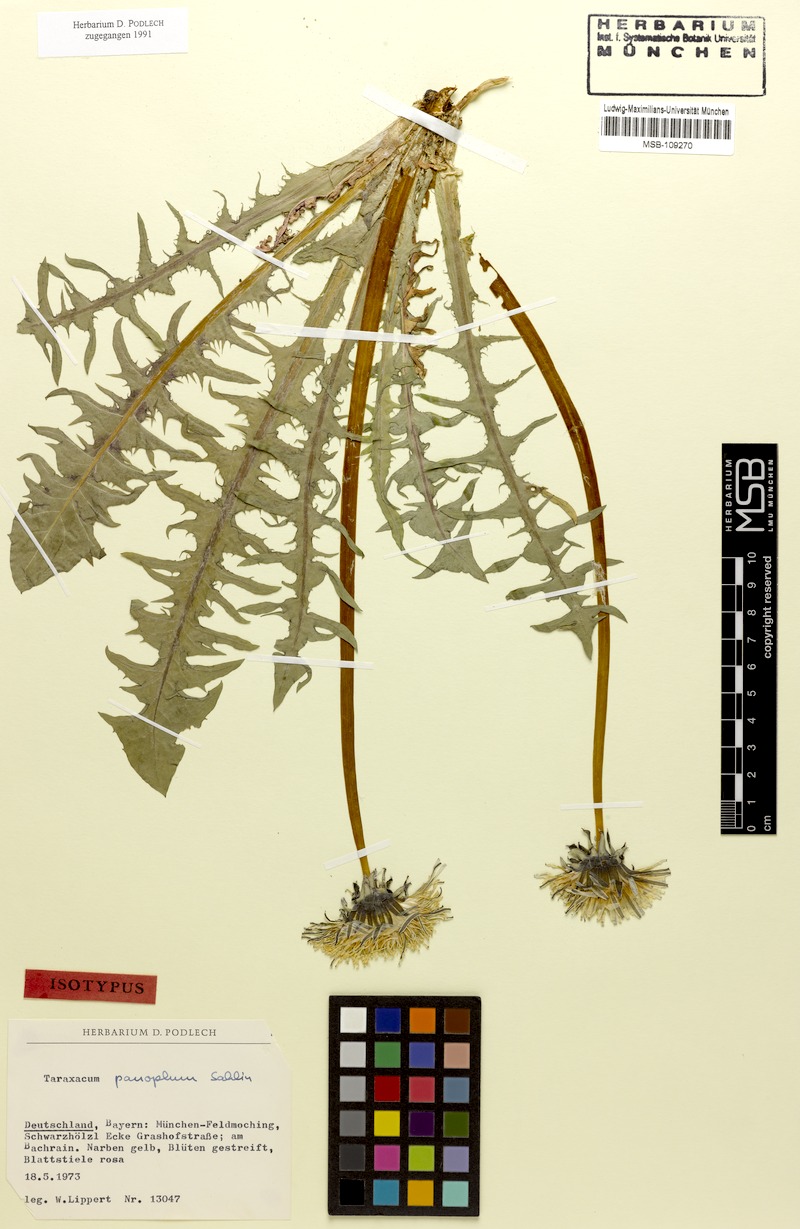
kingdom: Plantae
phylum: Tracheophyta
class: Magnoliopsida
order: Asterales
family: Asteraceae
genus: Taraxacum
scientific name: Taraxacum panoplum
